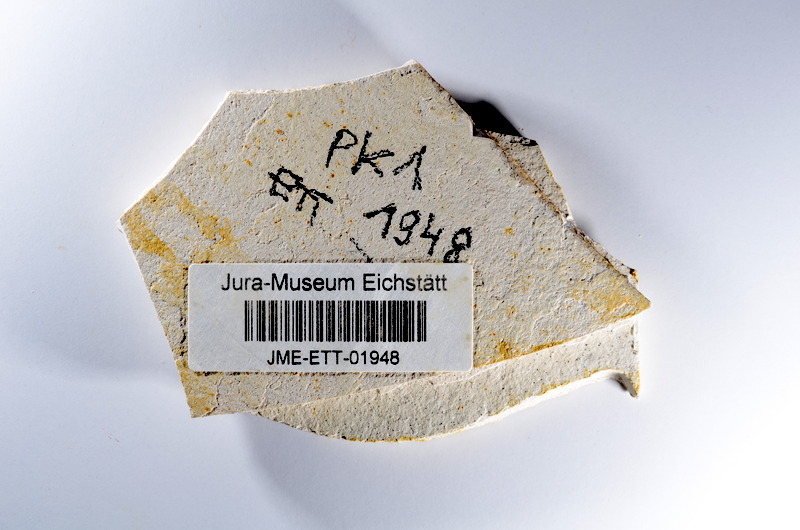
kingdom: Animalia
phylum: Chordata
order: Salmoniformes
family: Orthogonikleithridae
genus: Orthogonikleithrus
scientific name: Orthogonikleithrus hoelli
